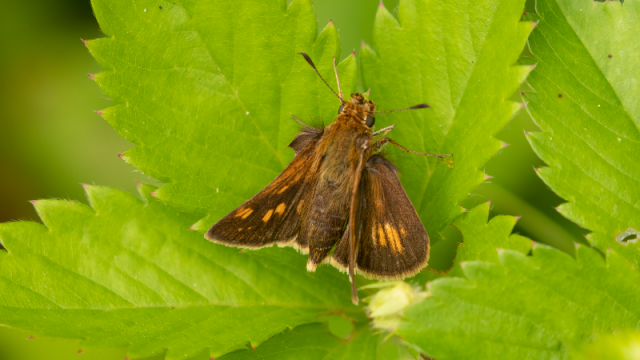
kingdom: Animalia
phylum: Arthropoda
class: Insecta
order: Lepidoptera
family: Hesperiidae
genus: Polites
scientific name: Polites coras
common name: Peck's Skipper
